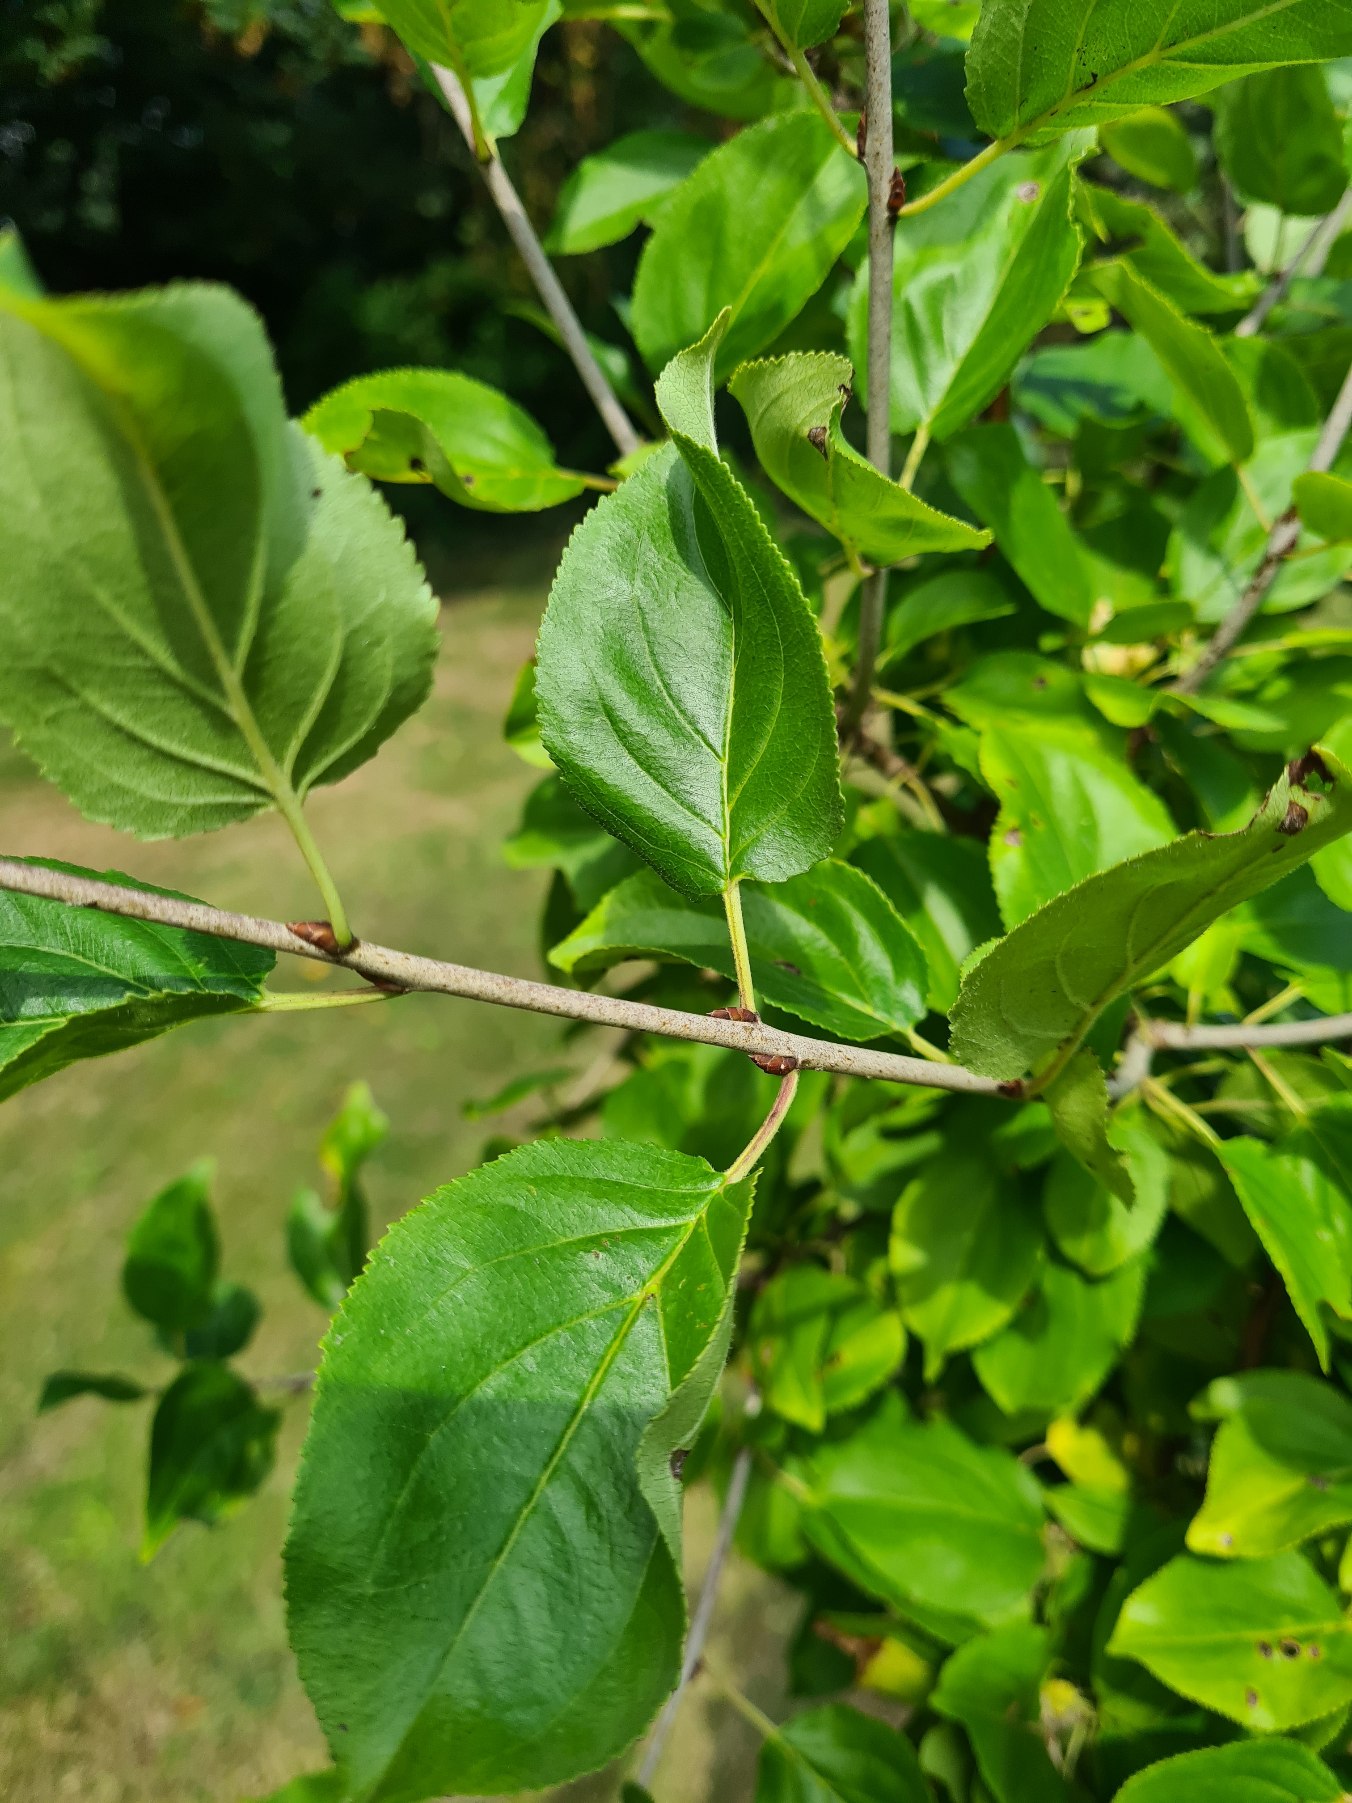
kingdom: Plantae
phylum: Tracheophyta
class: Magnoliopsida
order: Rosales
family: Rhamnaceae
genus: Rhamnus
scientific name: Rhamnus cathartica
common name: Vrietorn
